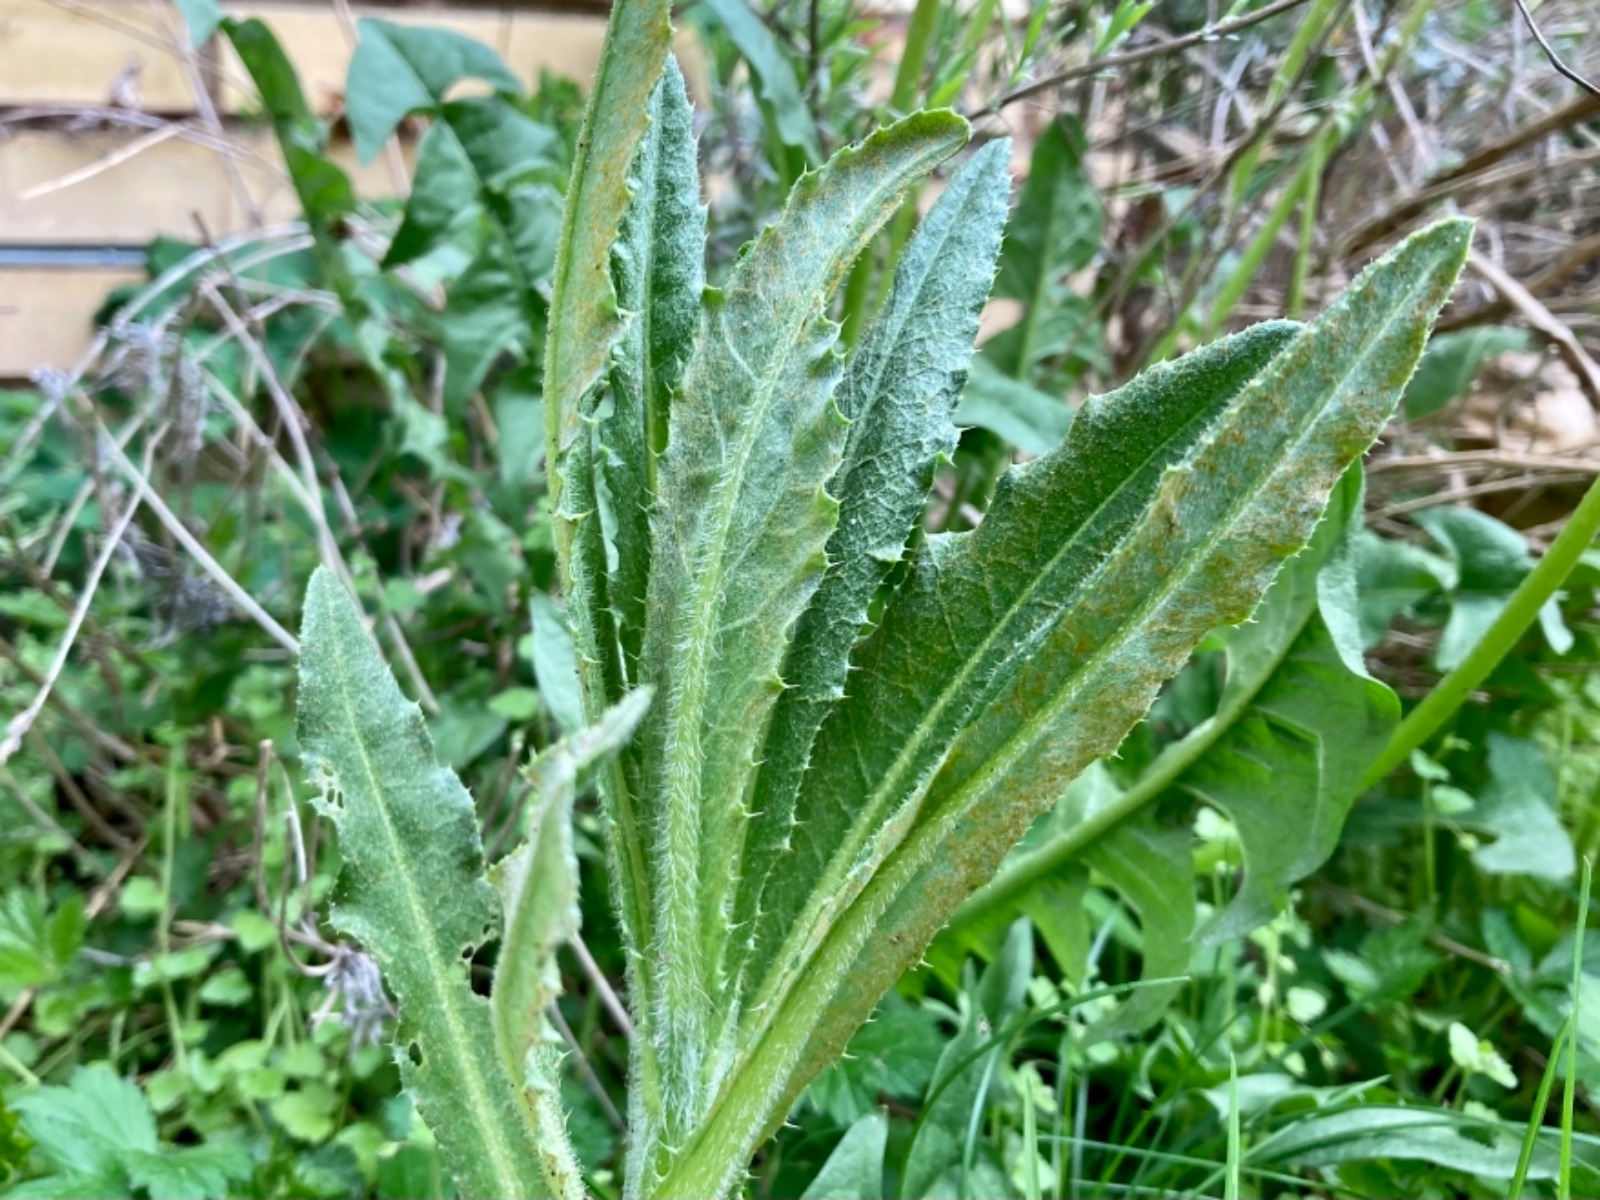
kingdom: Fungi
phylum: Basidiomycota
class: Pucciniomycetes
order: Pucciniales
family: Pucciniaceae
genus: Puccinia
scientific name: Puccinia suaveolens
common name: tidsel-tvecellerust
